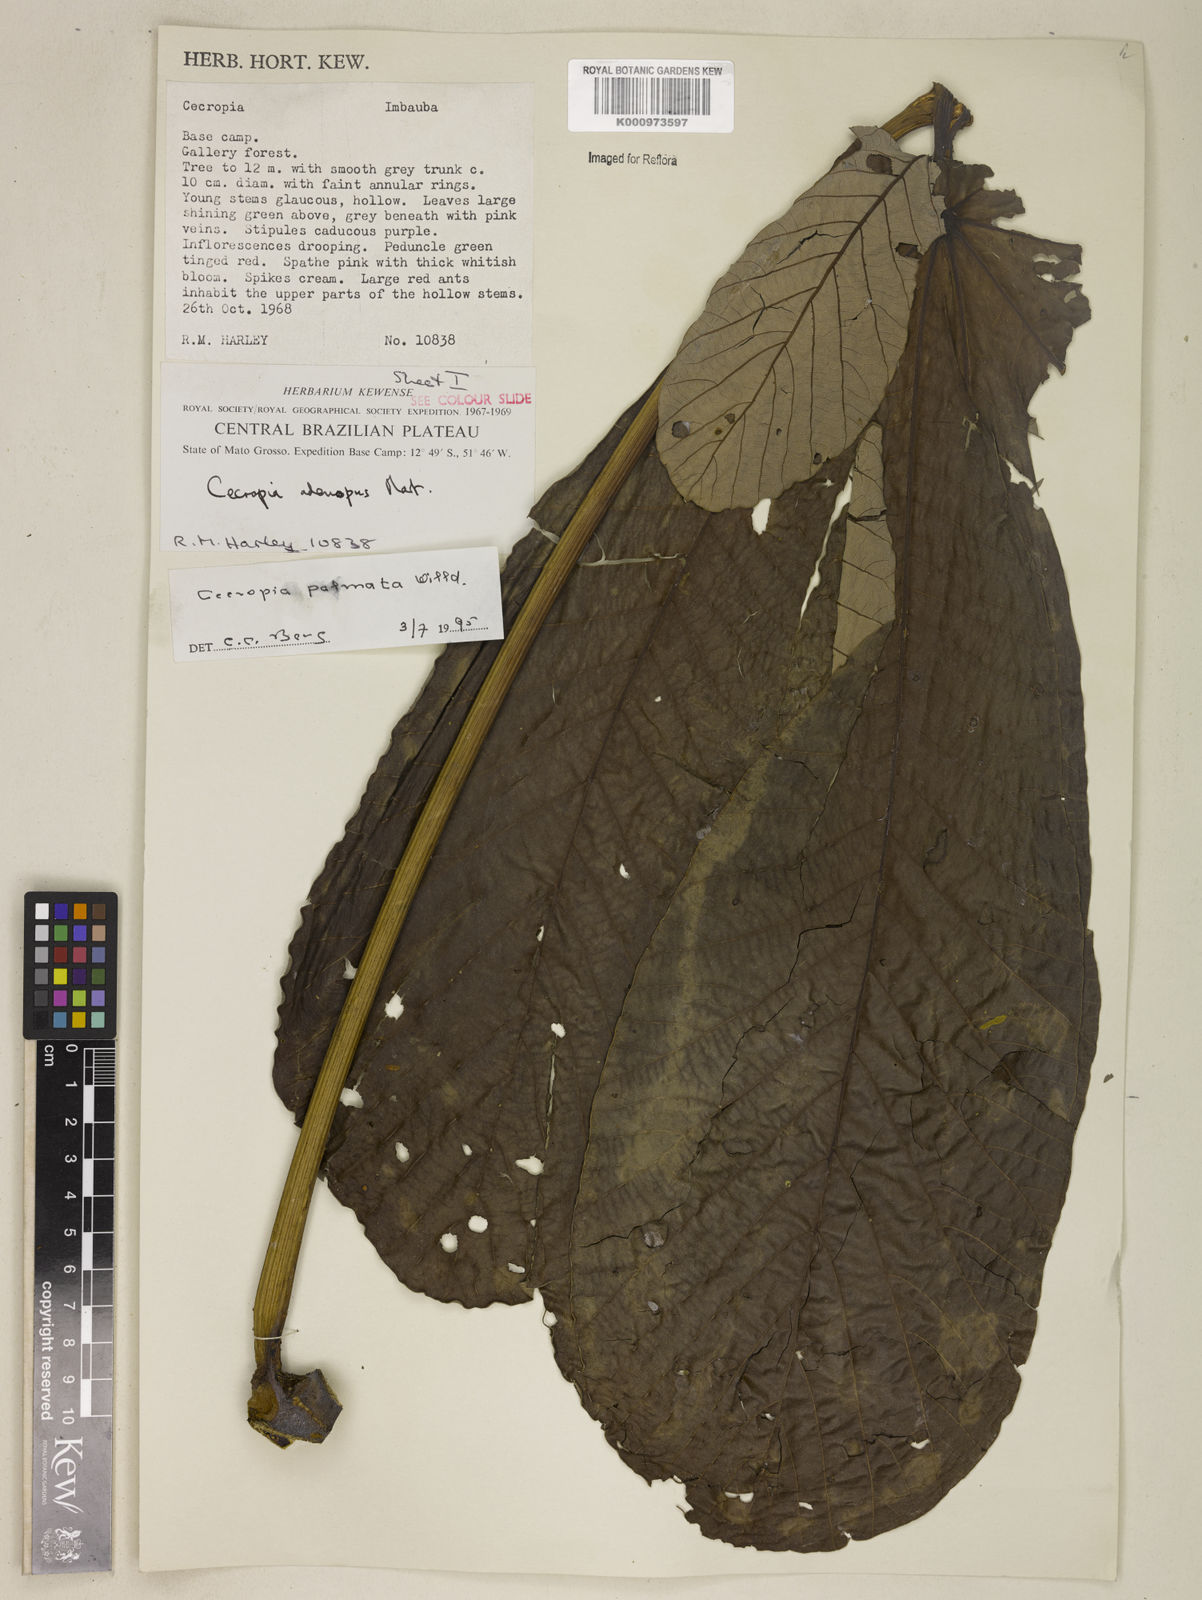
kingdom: Plantae
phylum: Tracheophyta
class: Magnoliopsida
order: Rosales
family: Urticaceae
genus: Cecropia
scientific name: Cecropia palmata
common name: Trumpet tree
